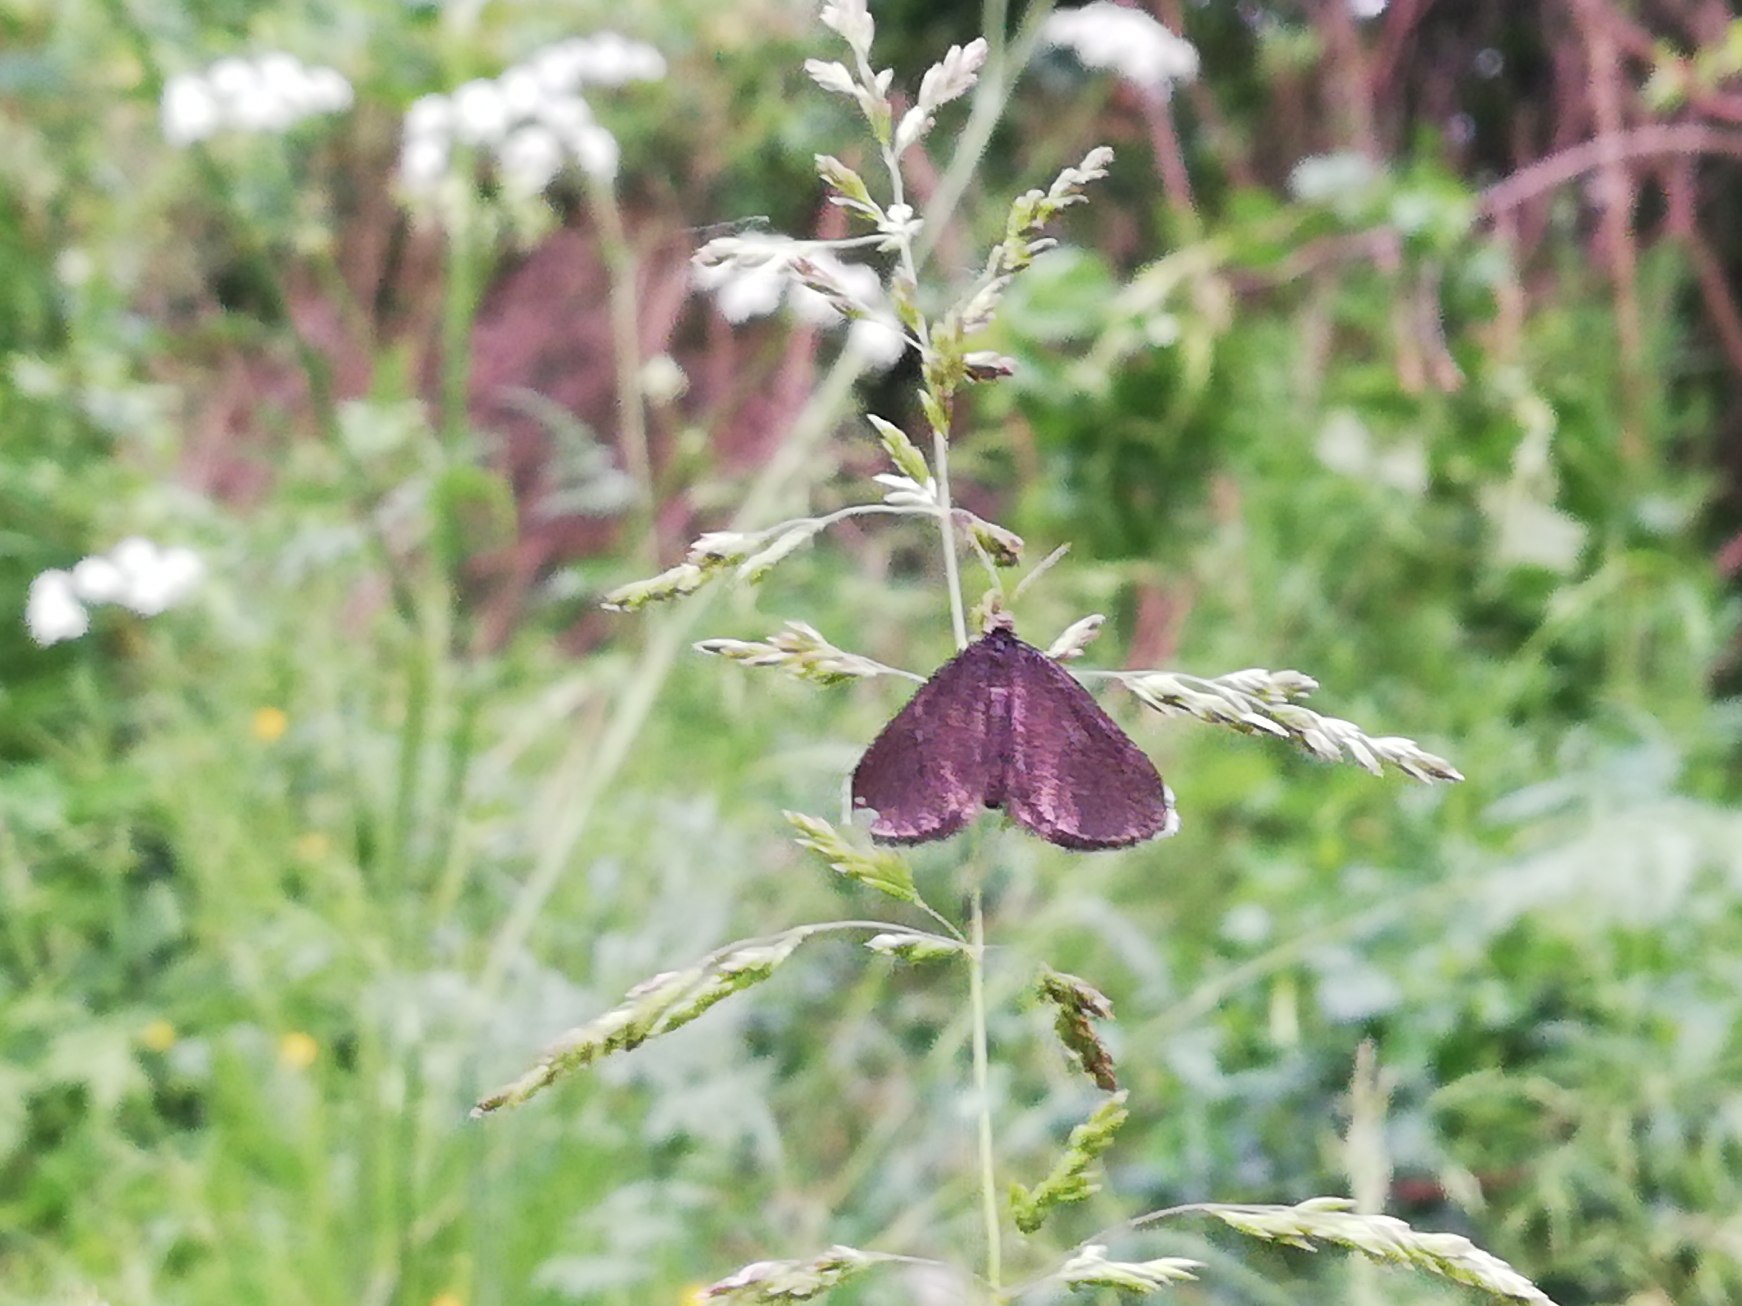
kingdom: Animalia
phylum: Arthropoda
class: Insecta
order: Lepidoptera
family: Geometridae
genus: Odezia
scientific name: Odezia atrata
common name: Sort måler
